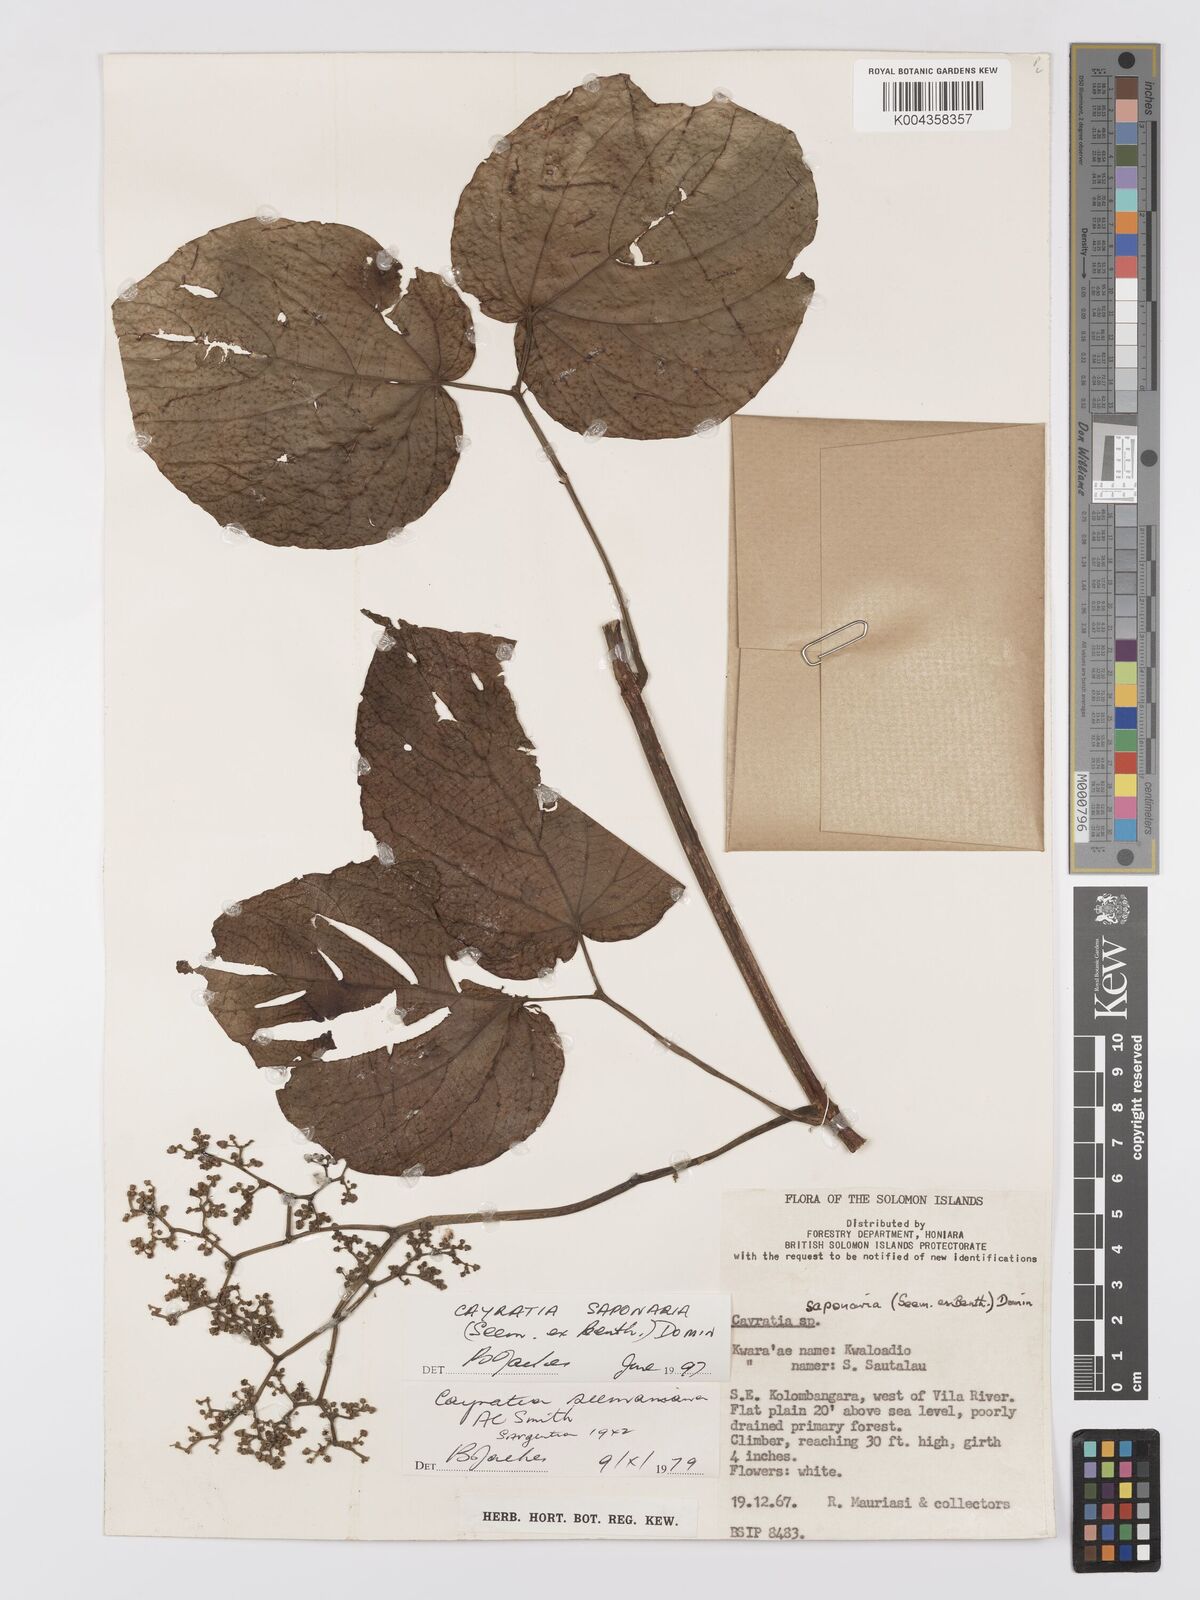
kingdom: Plantae
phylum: Tracheophyta
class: Magnoliopsida
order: Vitales
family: Vitaceae
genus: Cayratia
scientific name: Cayratia saponaria
